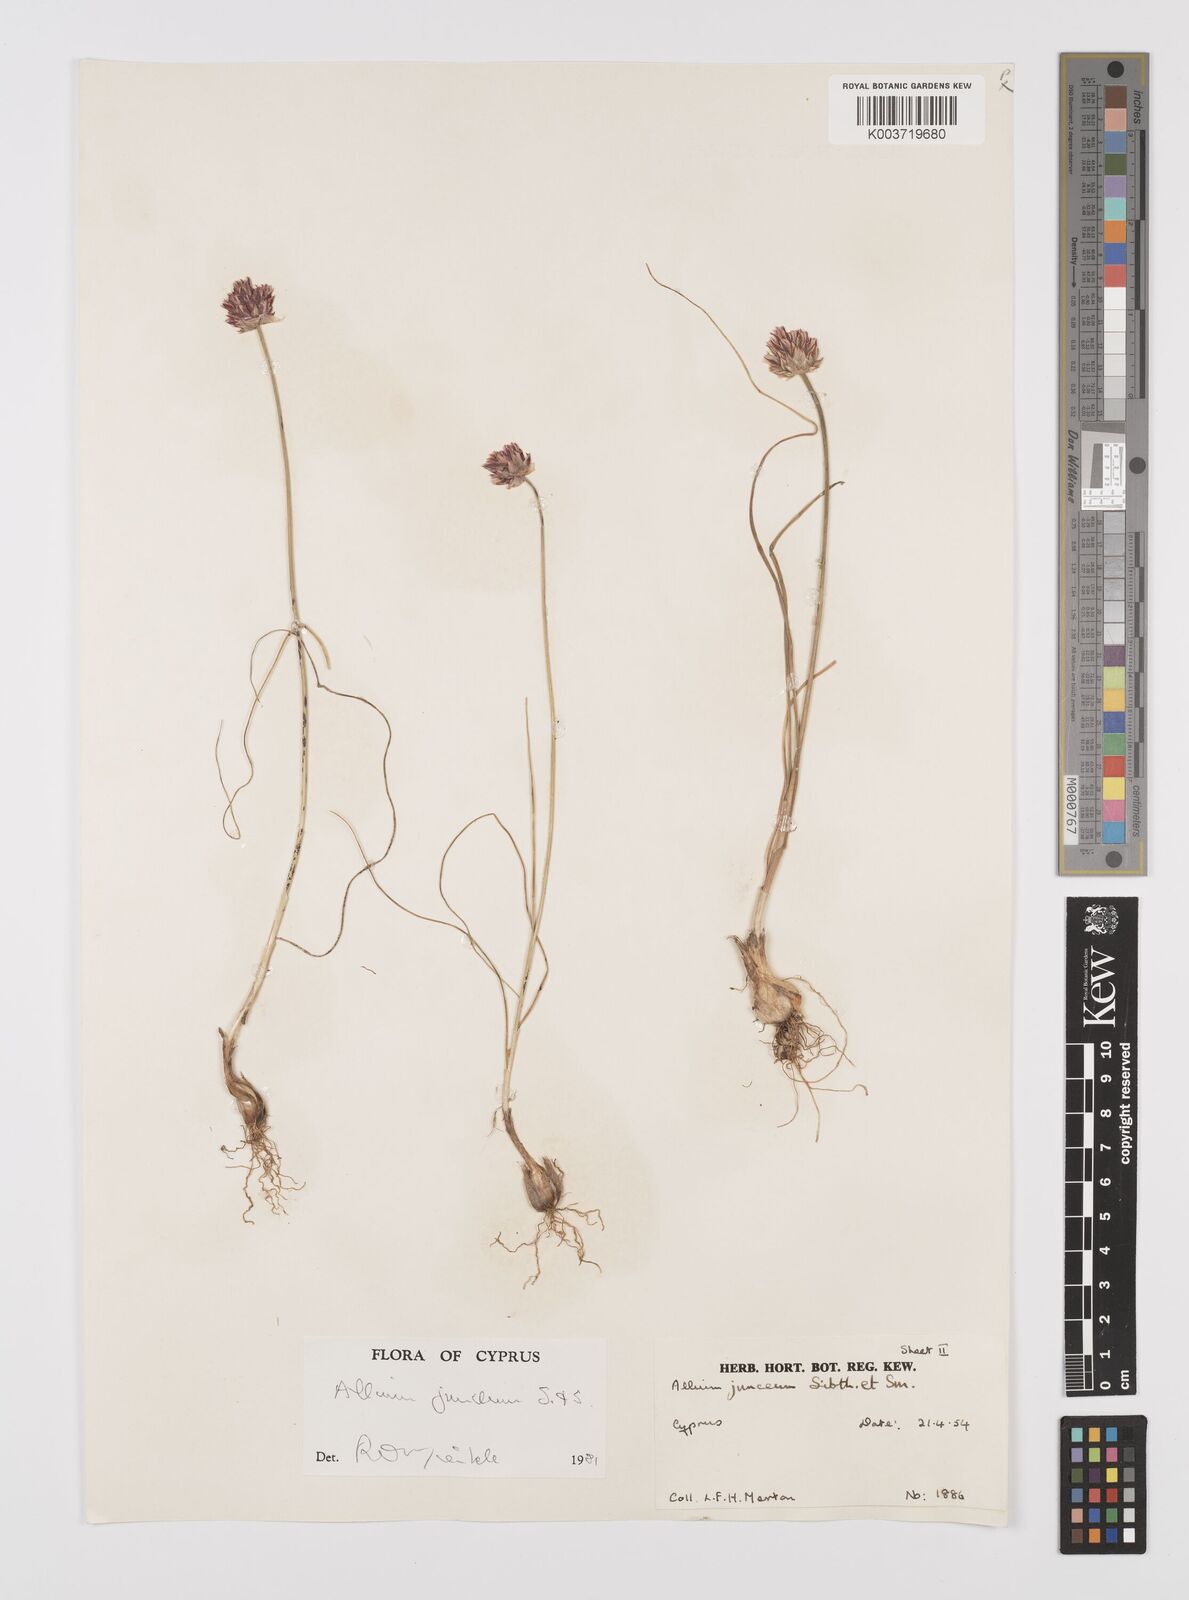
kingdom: Plantae
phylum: Tracheophyta
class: Liliopsida
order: Asparagales
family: Amaryllidaceae
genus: Allium
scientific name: Allium junceum
